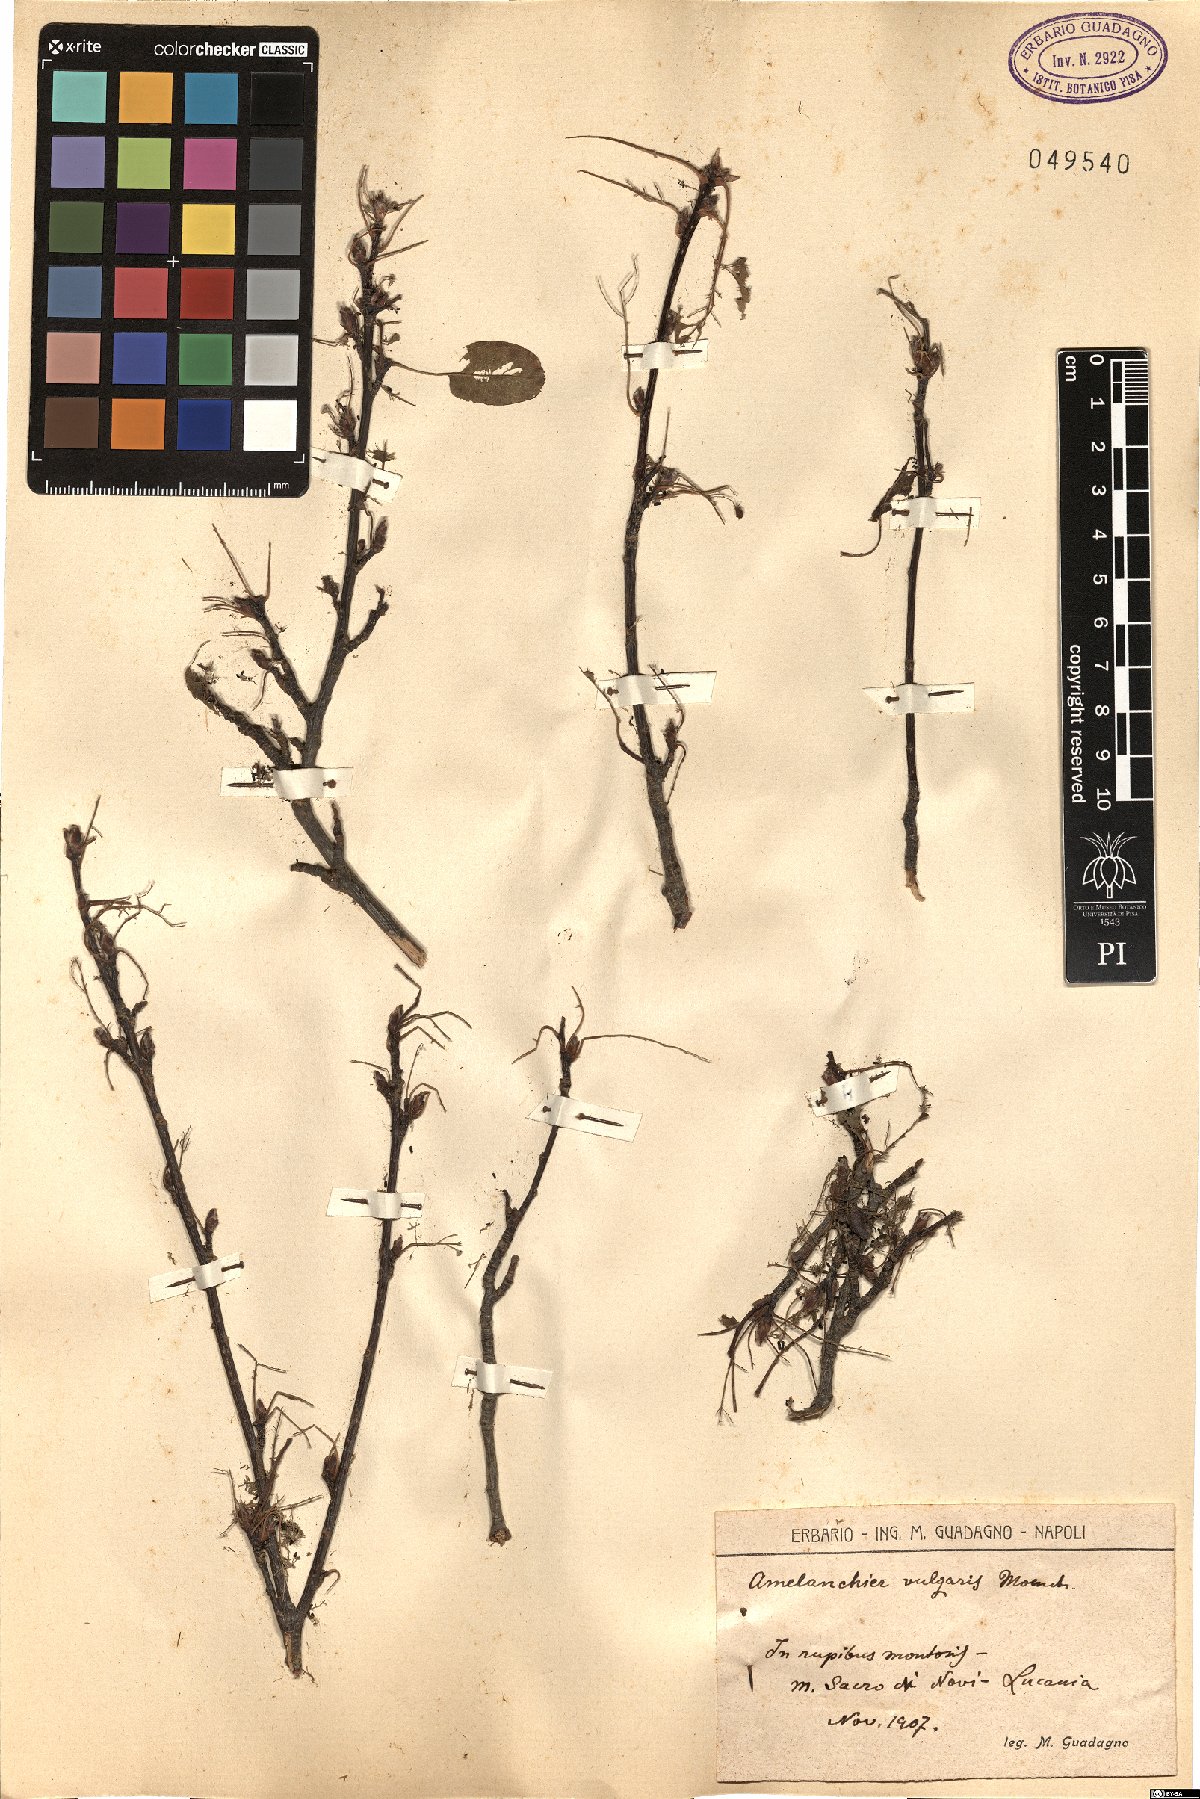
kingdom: Plantae
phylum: Tracheophyta
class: Magnoliopsida
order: Rosales
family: Rosaceae
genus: Amelanchier
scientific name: Amelanchier ovalis
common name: Serviceberry
